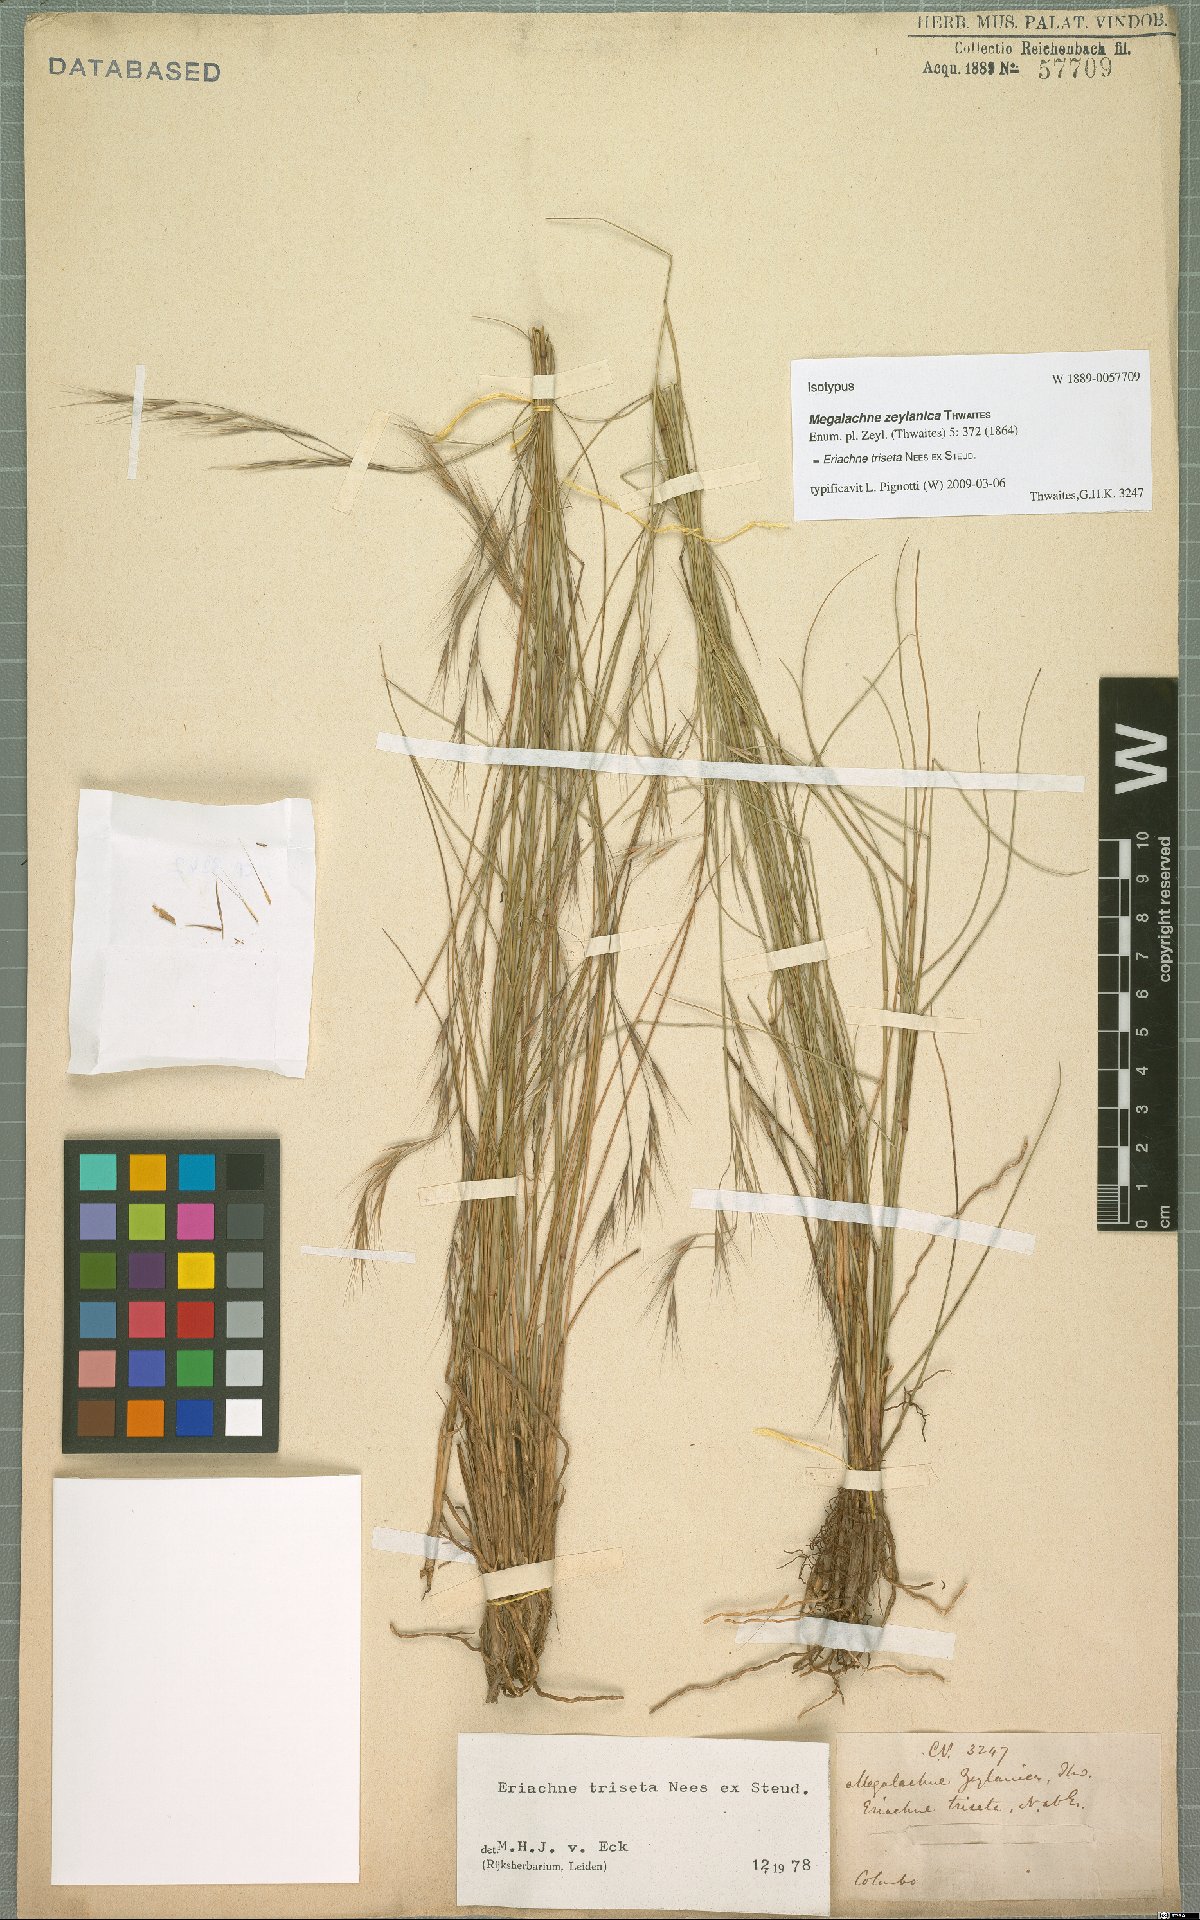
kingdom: Plantae
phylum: Tracheophyta
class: Liliopsida
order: Poales
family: Poaceae
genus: Eriachne
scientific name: Eriachne triseta
